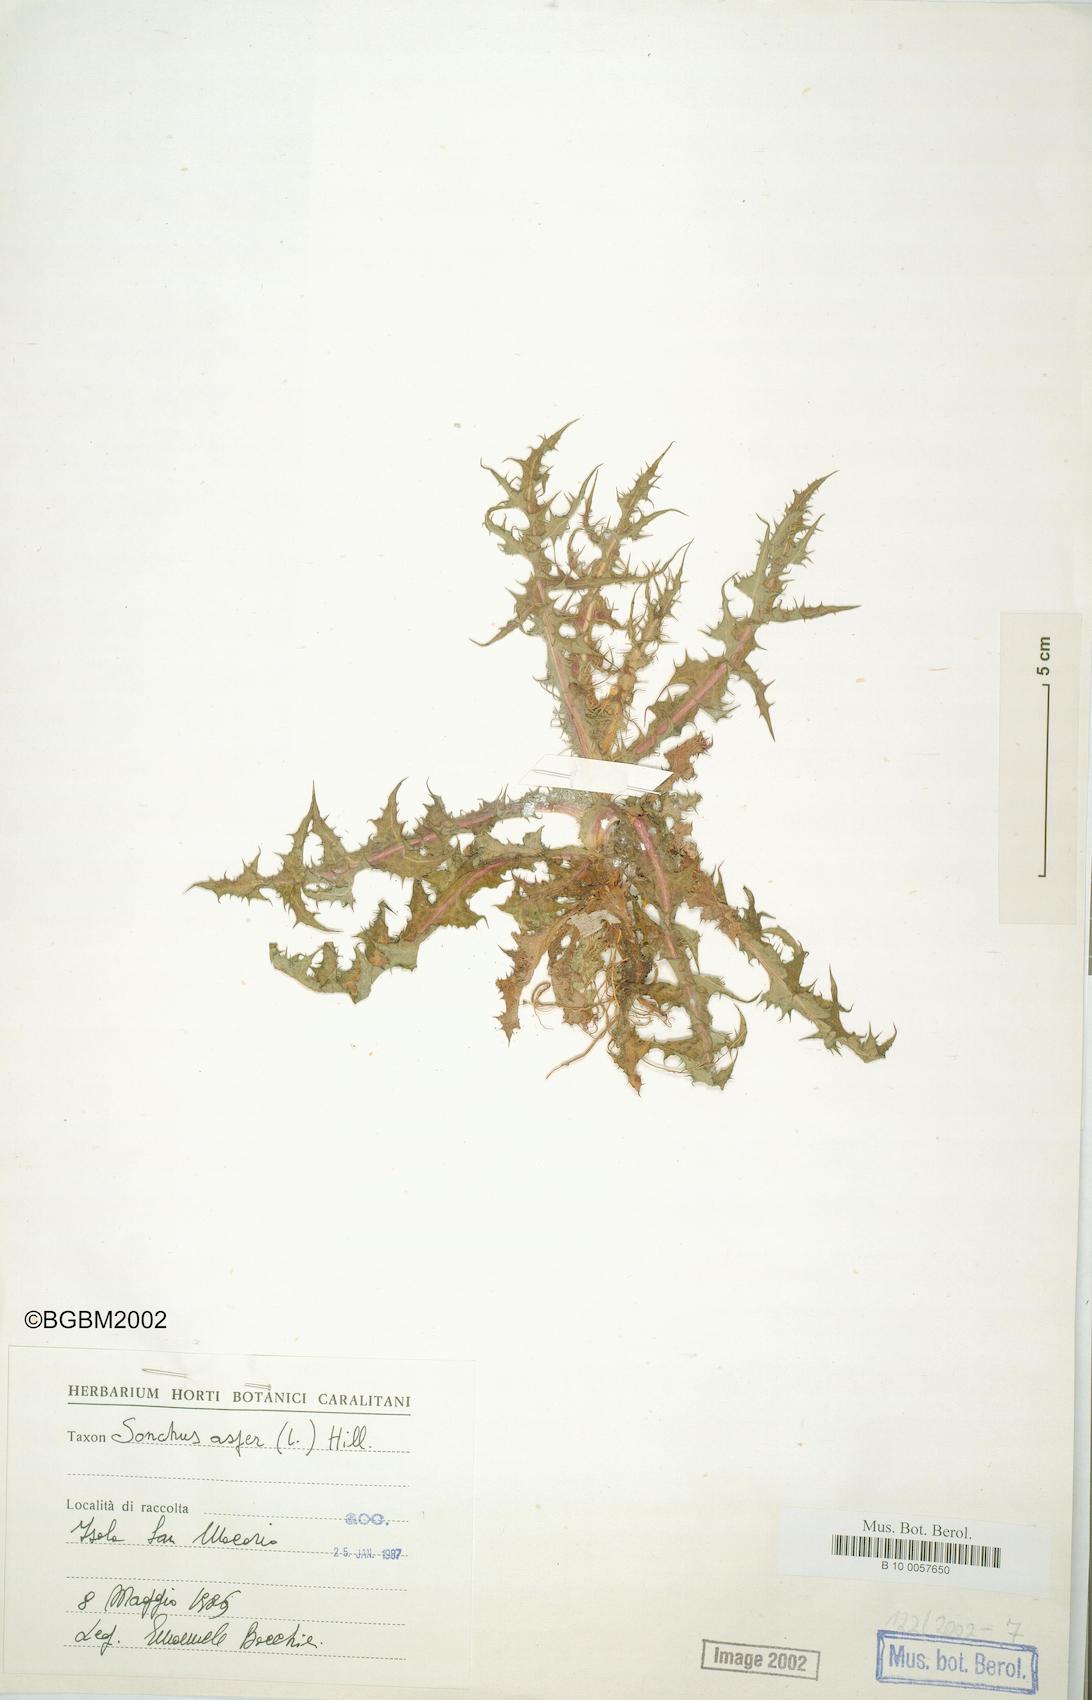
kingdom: Plantae
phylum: Tracheophyta
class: Magnoliopsida
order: Asterales
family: Asteraceae
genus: Sonchus
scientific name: Sonchus asper
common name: Prickly sow-thistle
